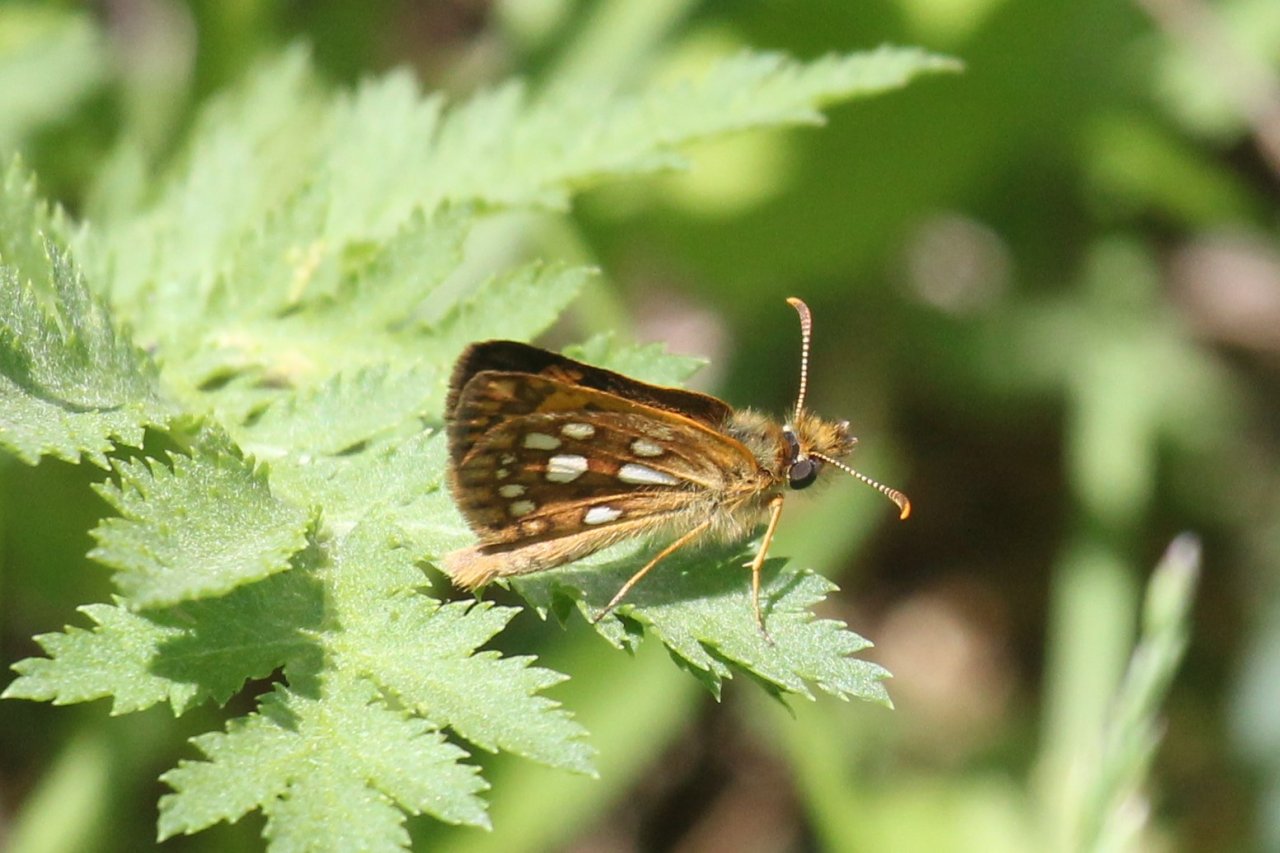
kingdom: Animalia
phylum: Arthropoda
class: Insecta
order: Lepidoptera
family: Hesperiidae
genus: Carterocephalus
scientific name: Carterocephalus palaemon
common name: Chequered Skipper
